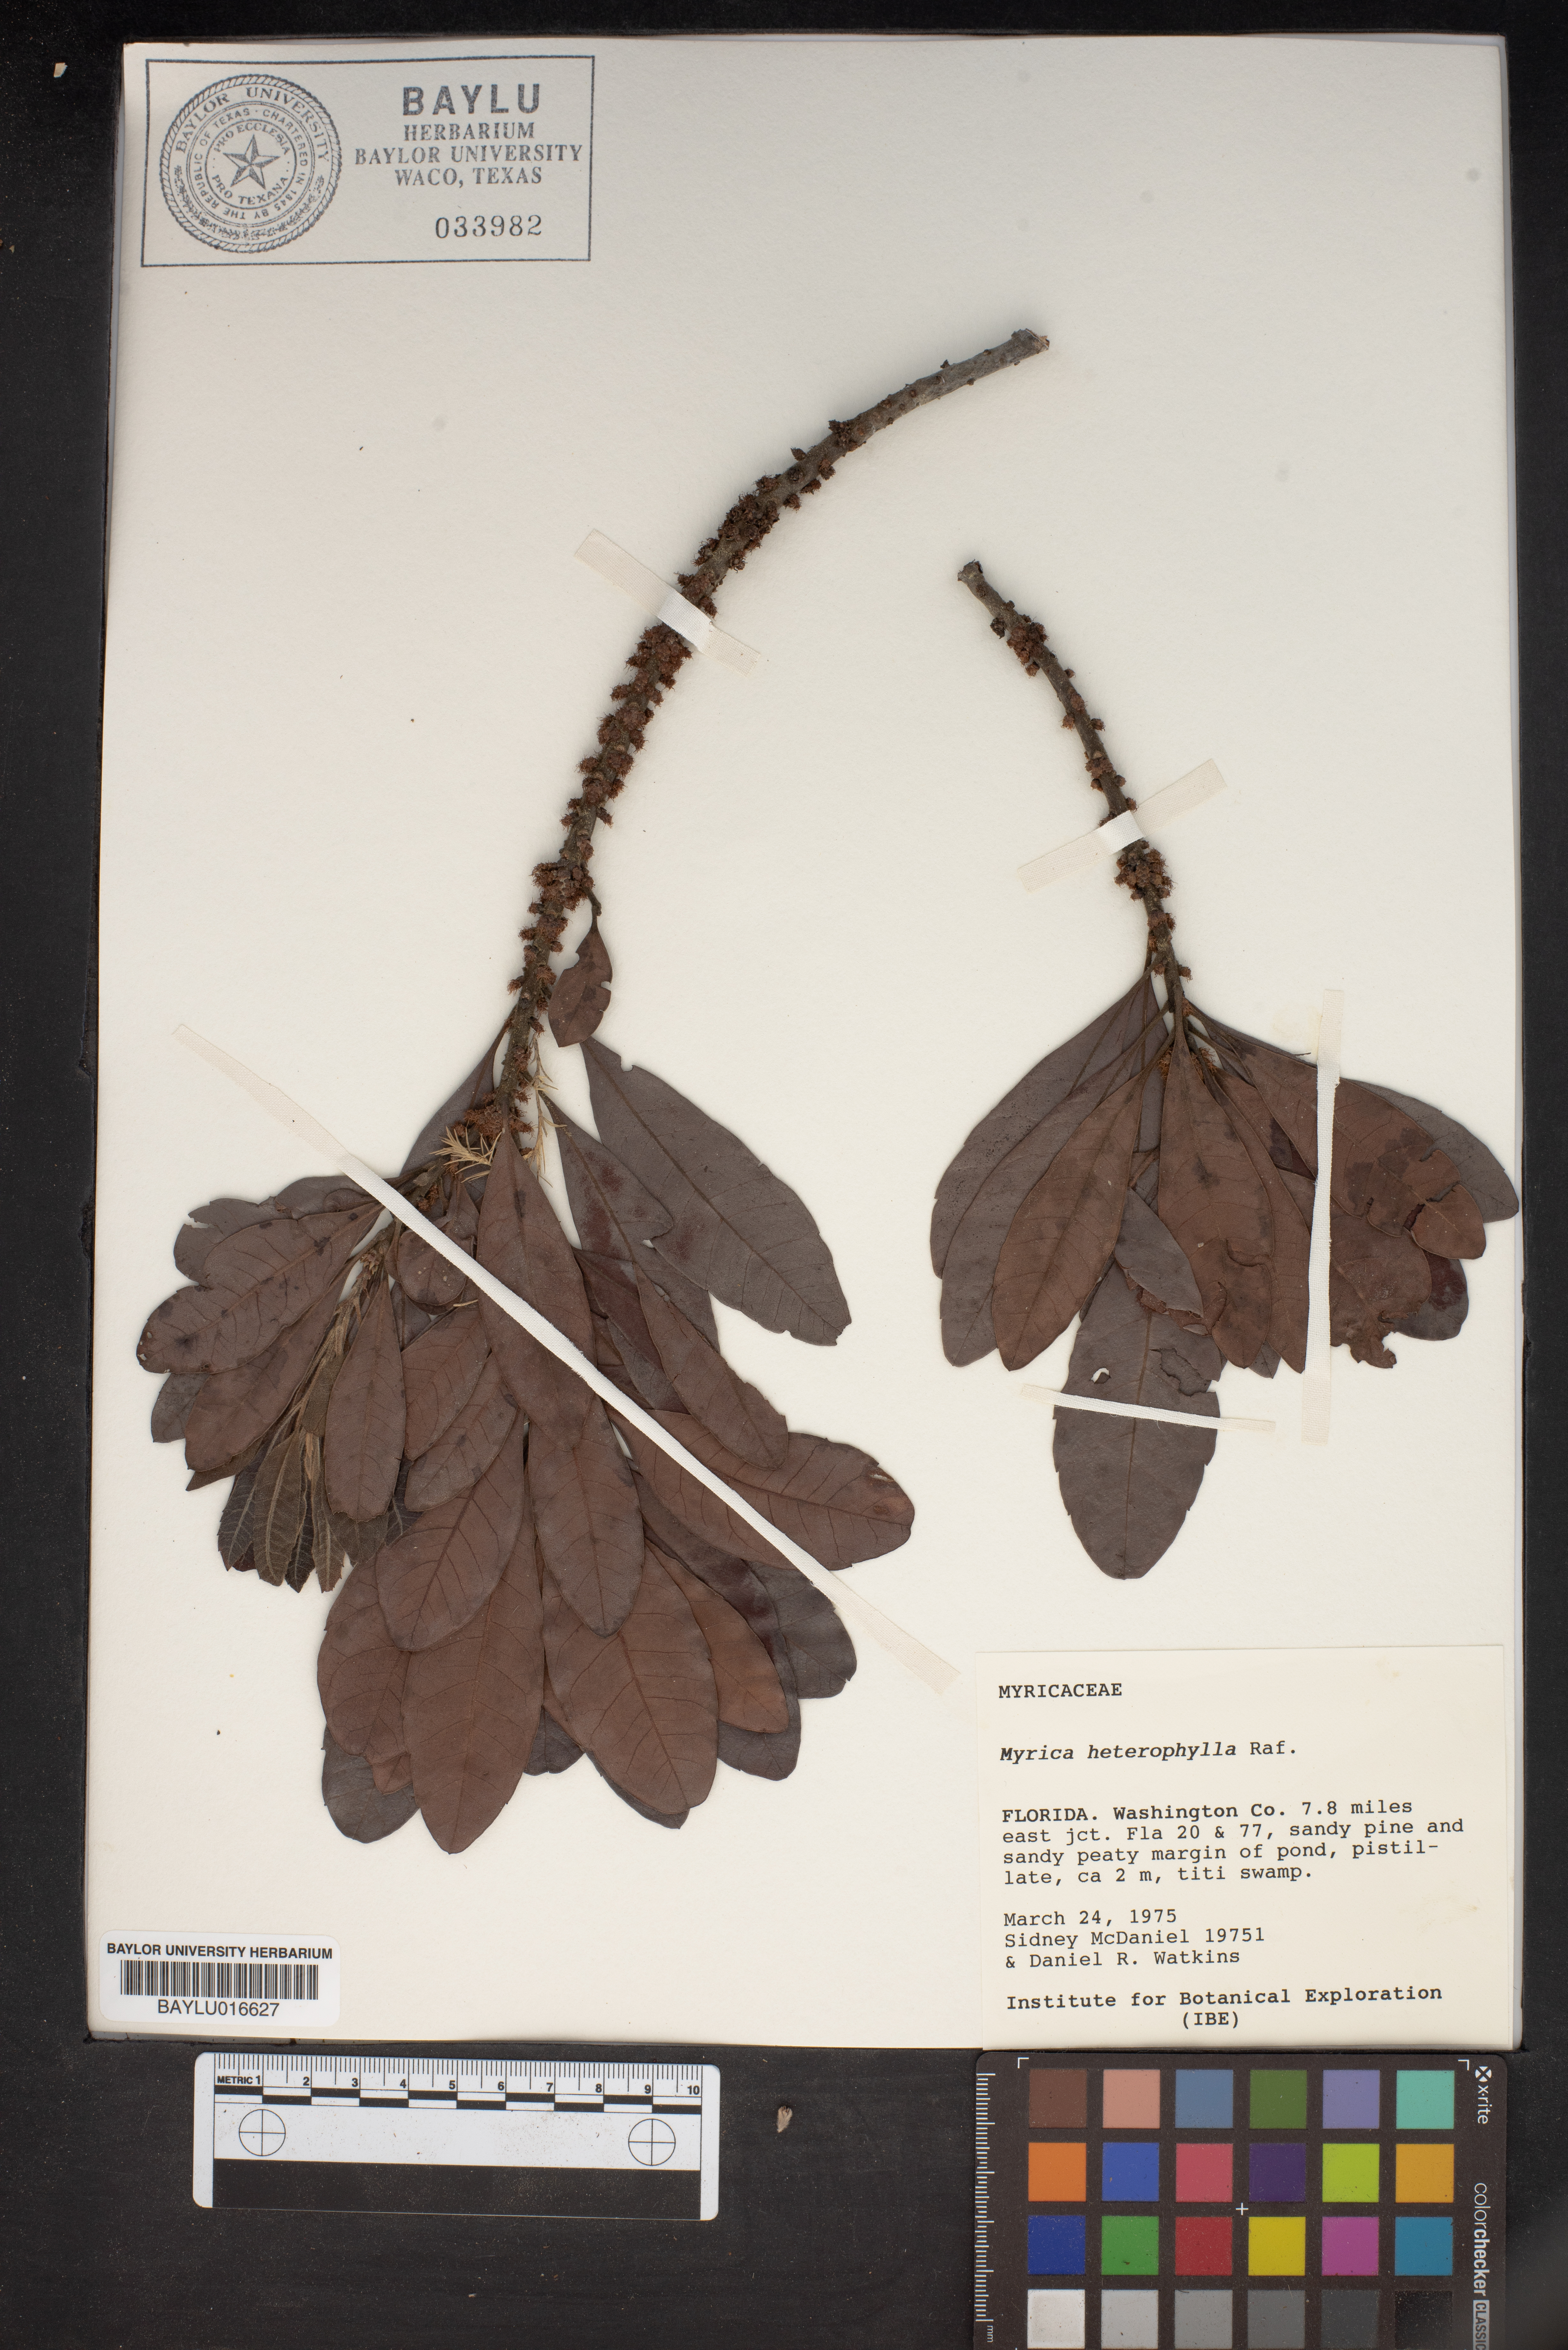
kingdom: Plantae
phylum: Tracheophyta
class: Magnoliopsida
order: Fagales
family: Myricaceae
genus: Morella
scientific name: Morella caroliniensis
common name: Evergreen bayberry
